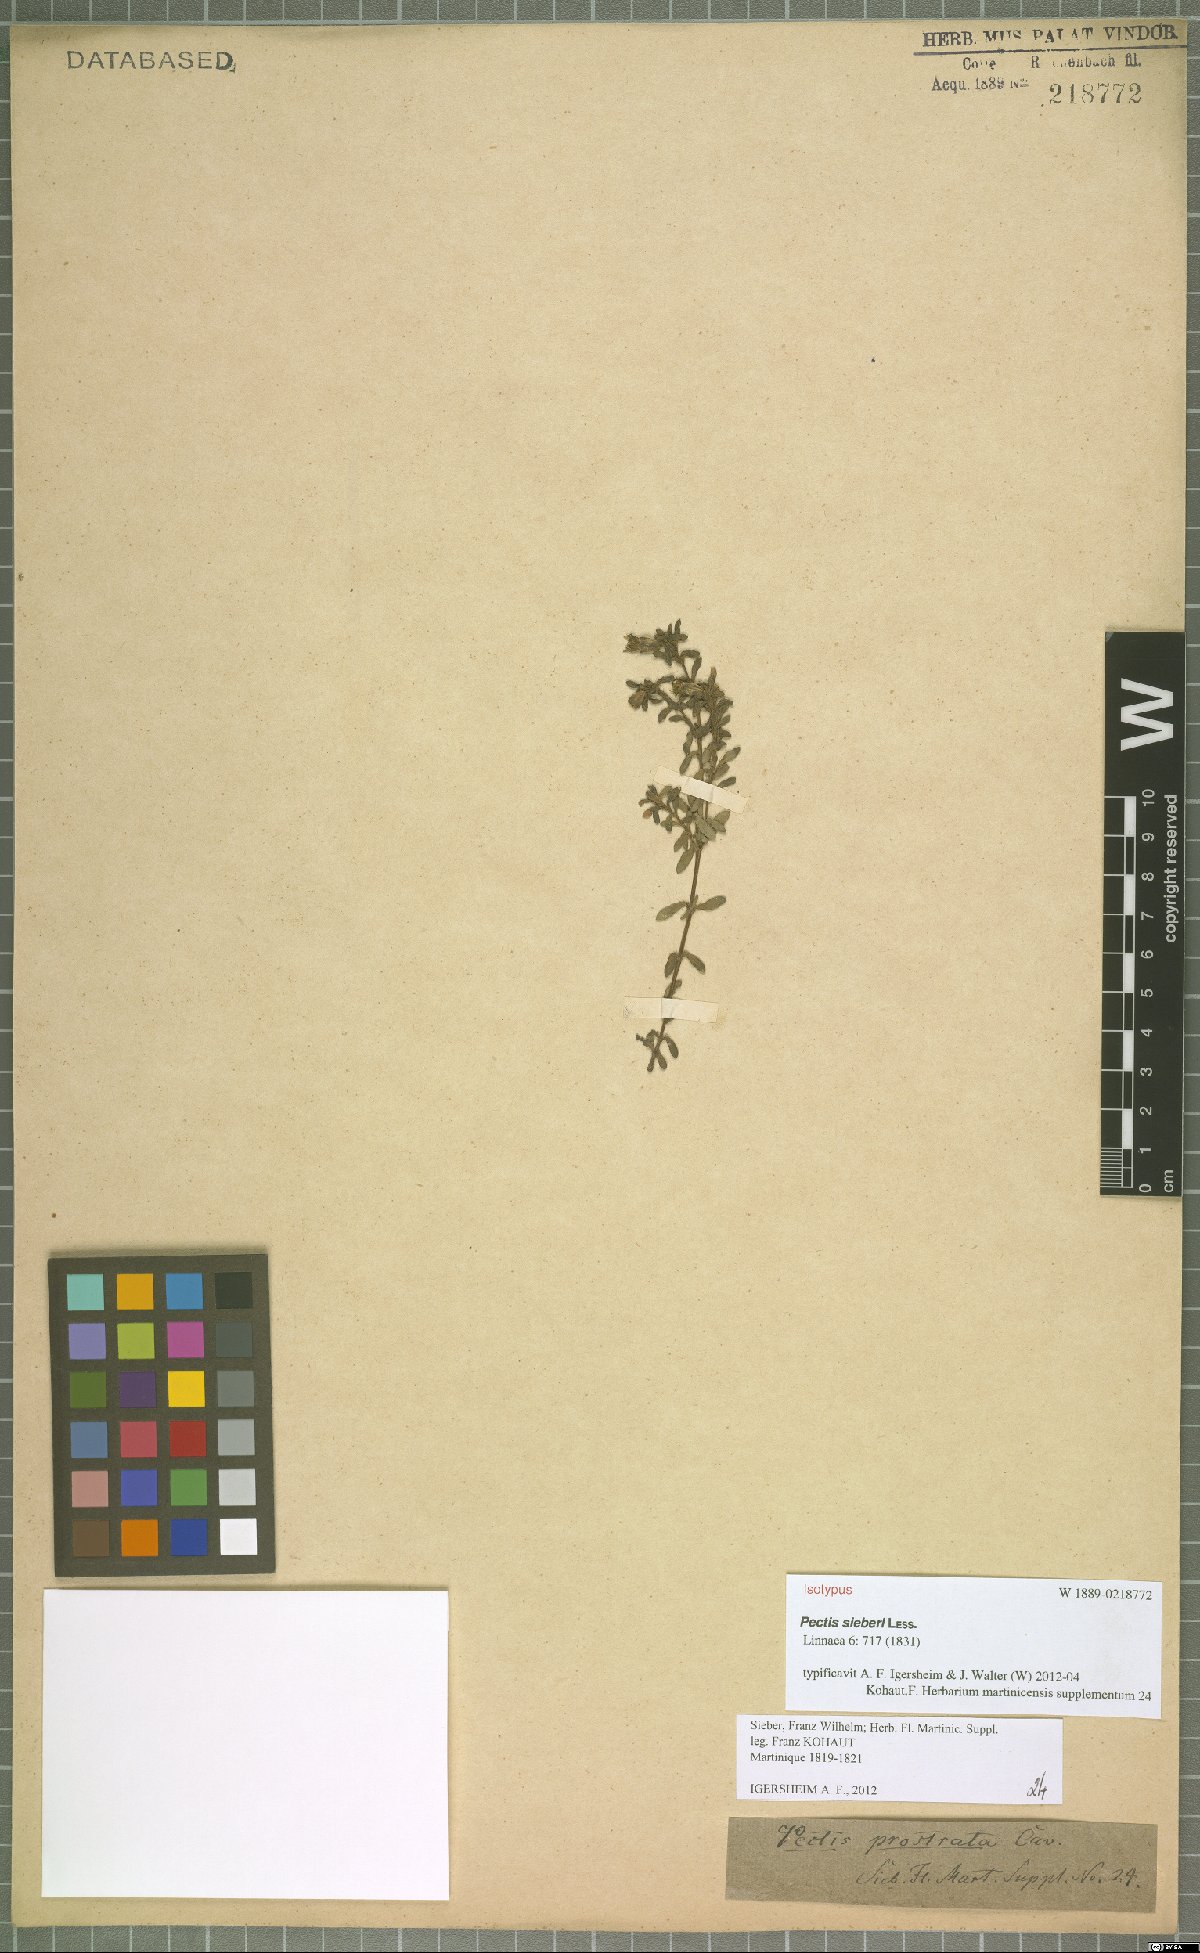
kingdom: Plantae
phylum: Tracheophyta
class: Magnoliopsida
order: Asterales
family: Asteraceae
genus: Pectis
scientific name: Pectis humifusa
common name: Yerba de san juan
